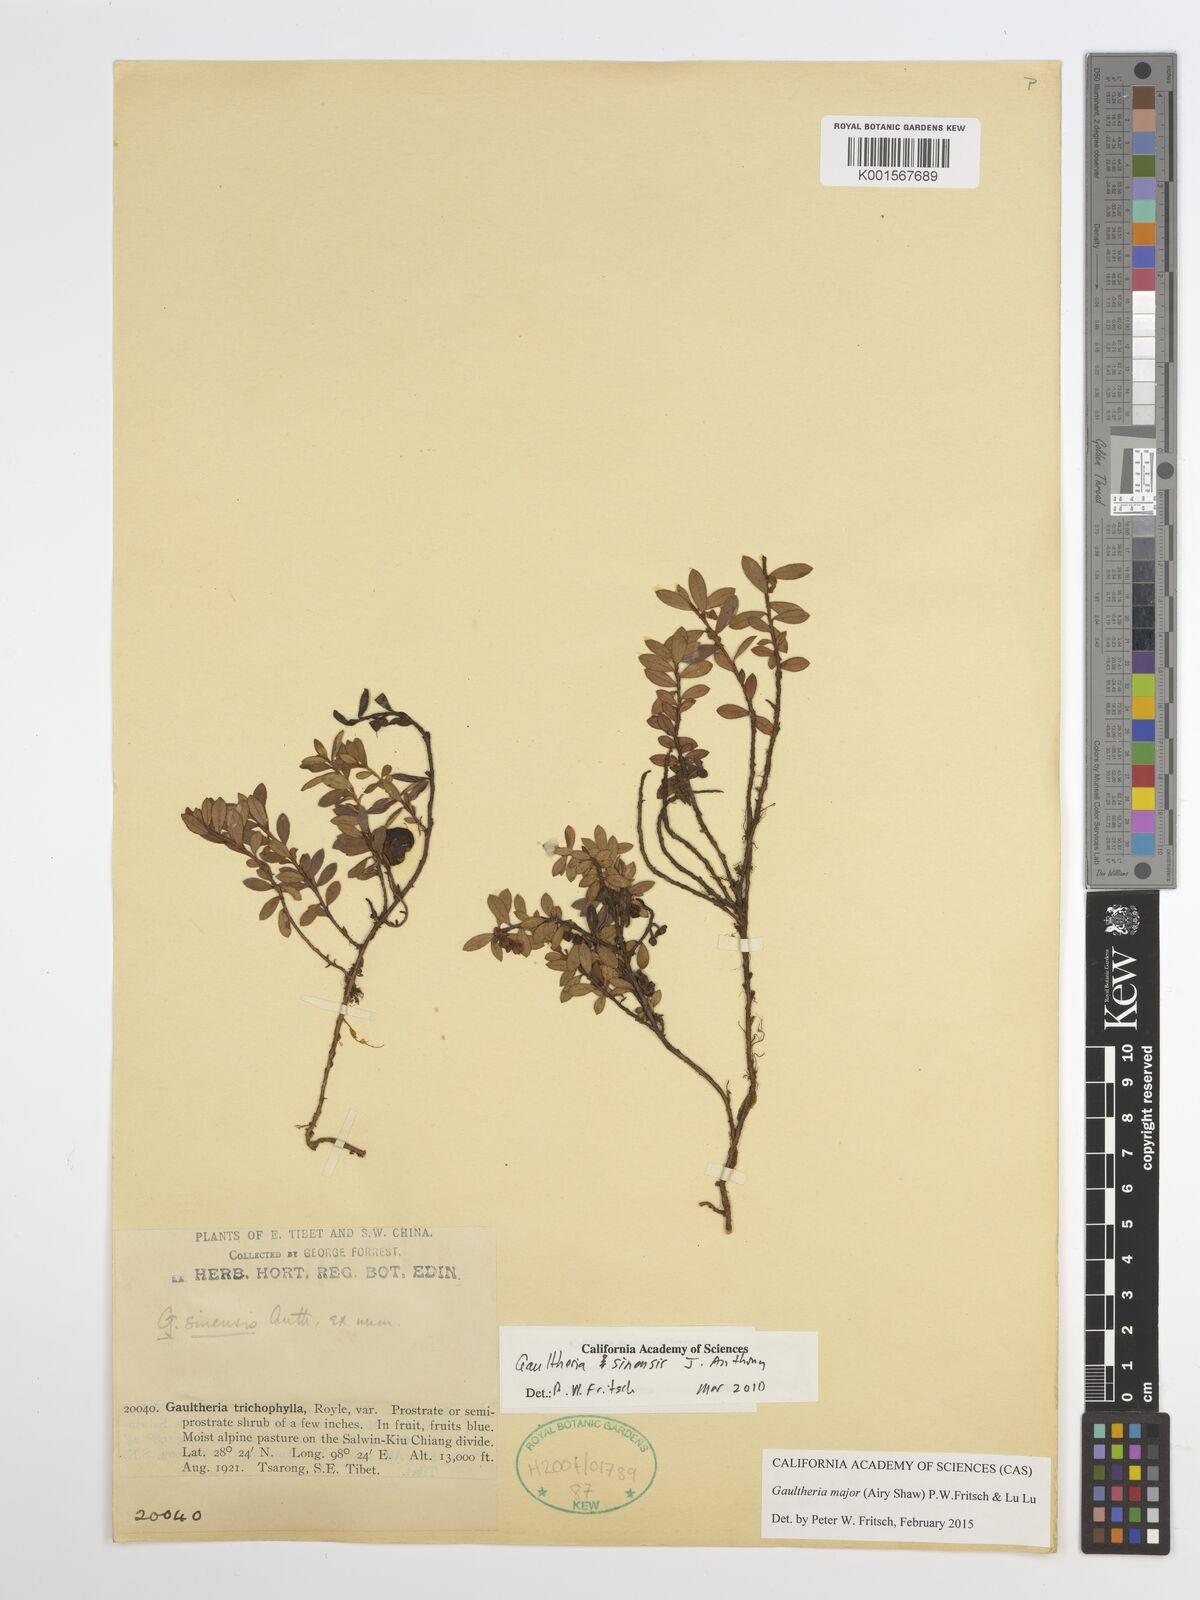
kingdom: Plantae
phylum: Tracheophyta
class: Magnoliopsida
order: Ericales
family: Ericaceae
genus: Gaultheria
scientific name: Gaultheria major
